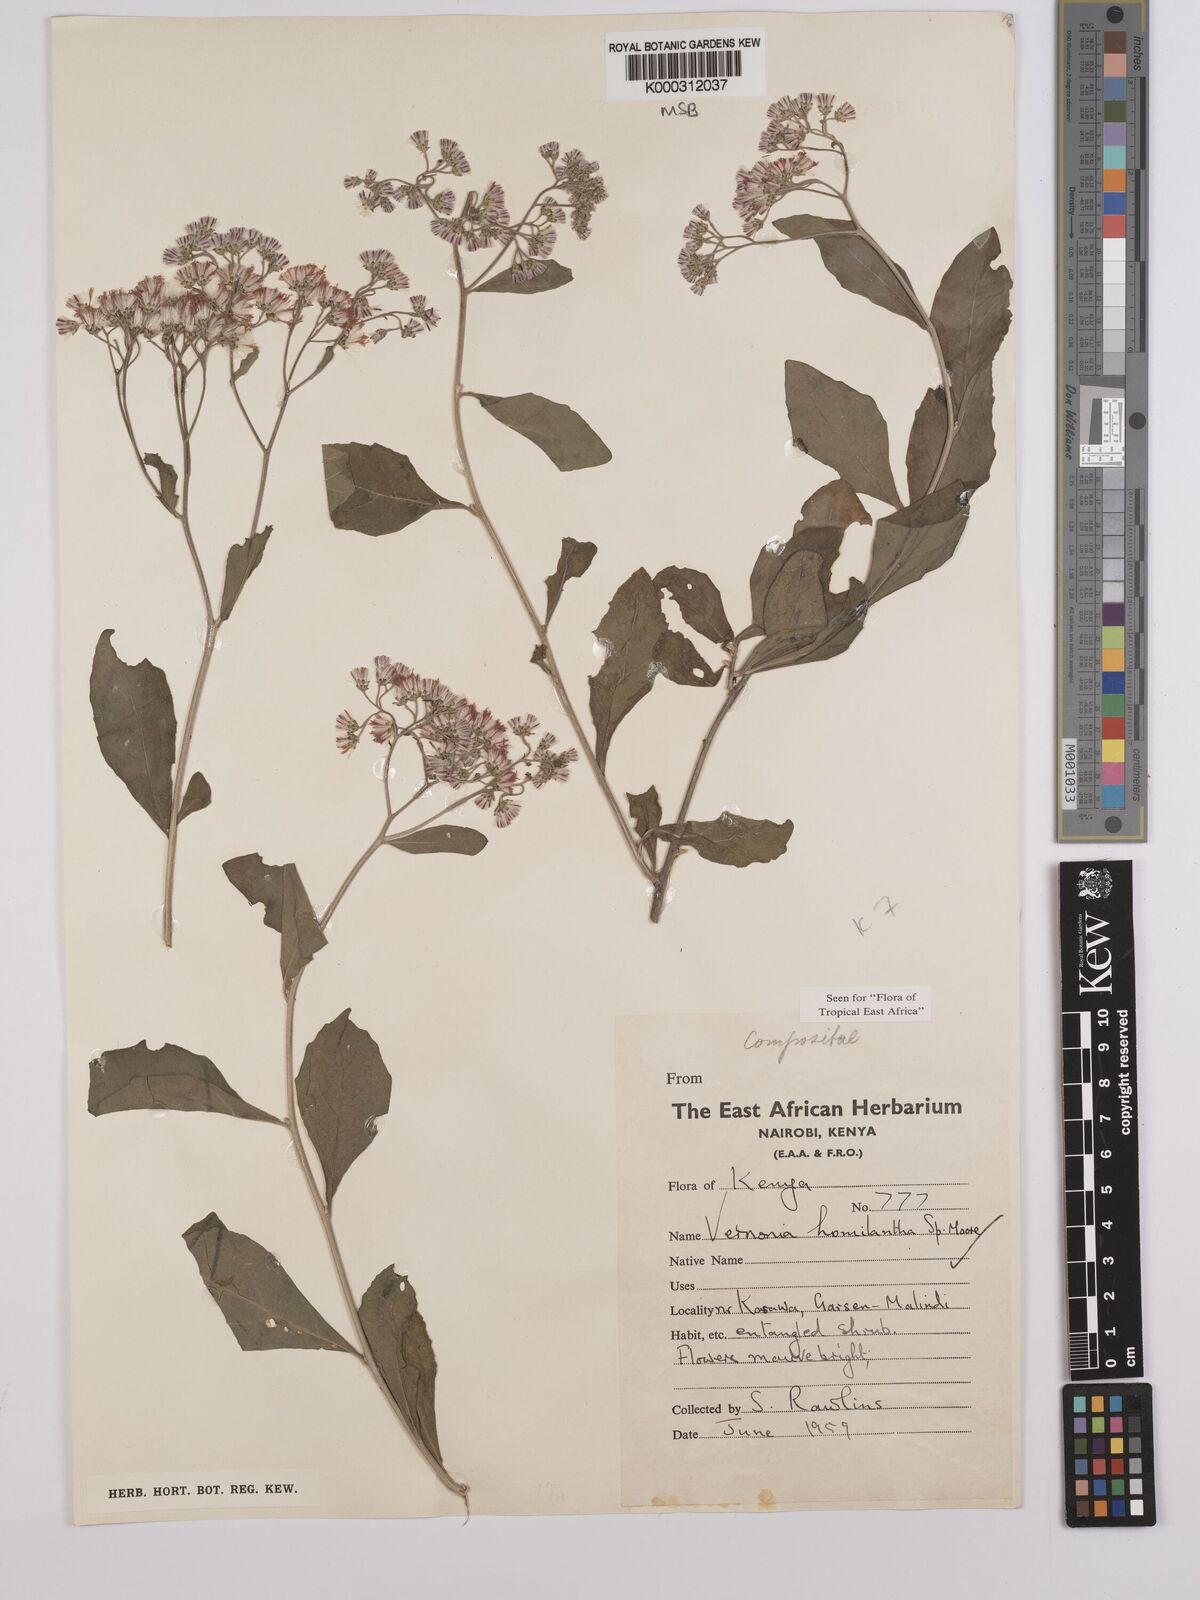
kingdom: Plantae
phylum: Tracheophyta
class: Magnoliopsida
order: Asterales
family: Asteraceae
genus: Orbivestus
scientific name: Orbivestus homilanthus
